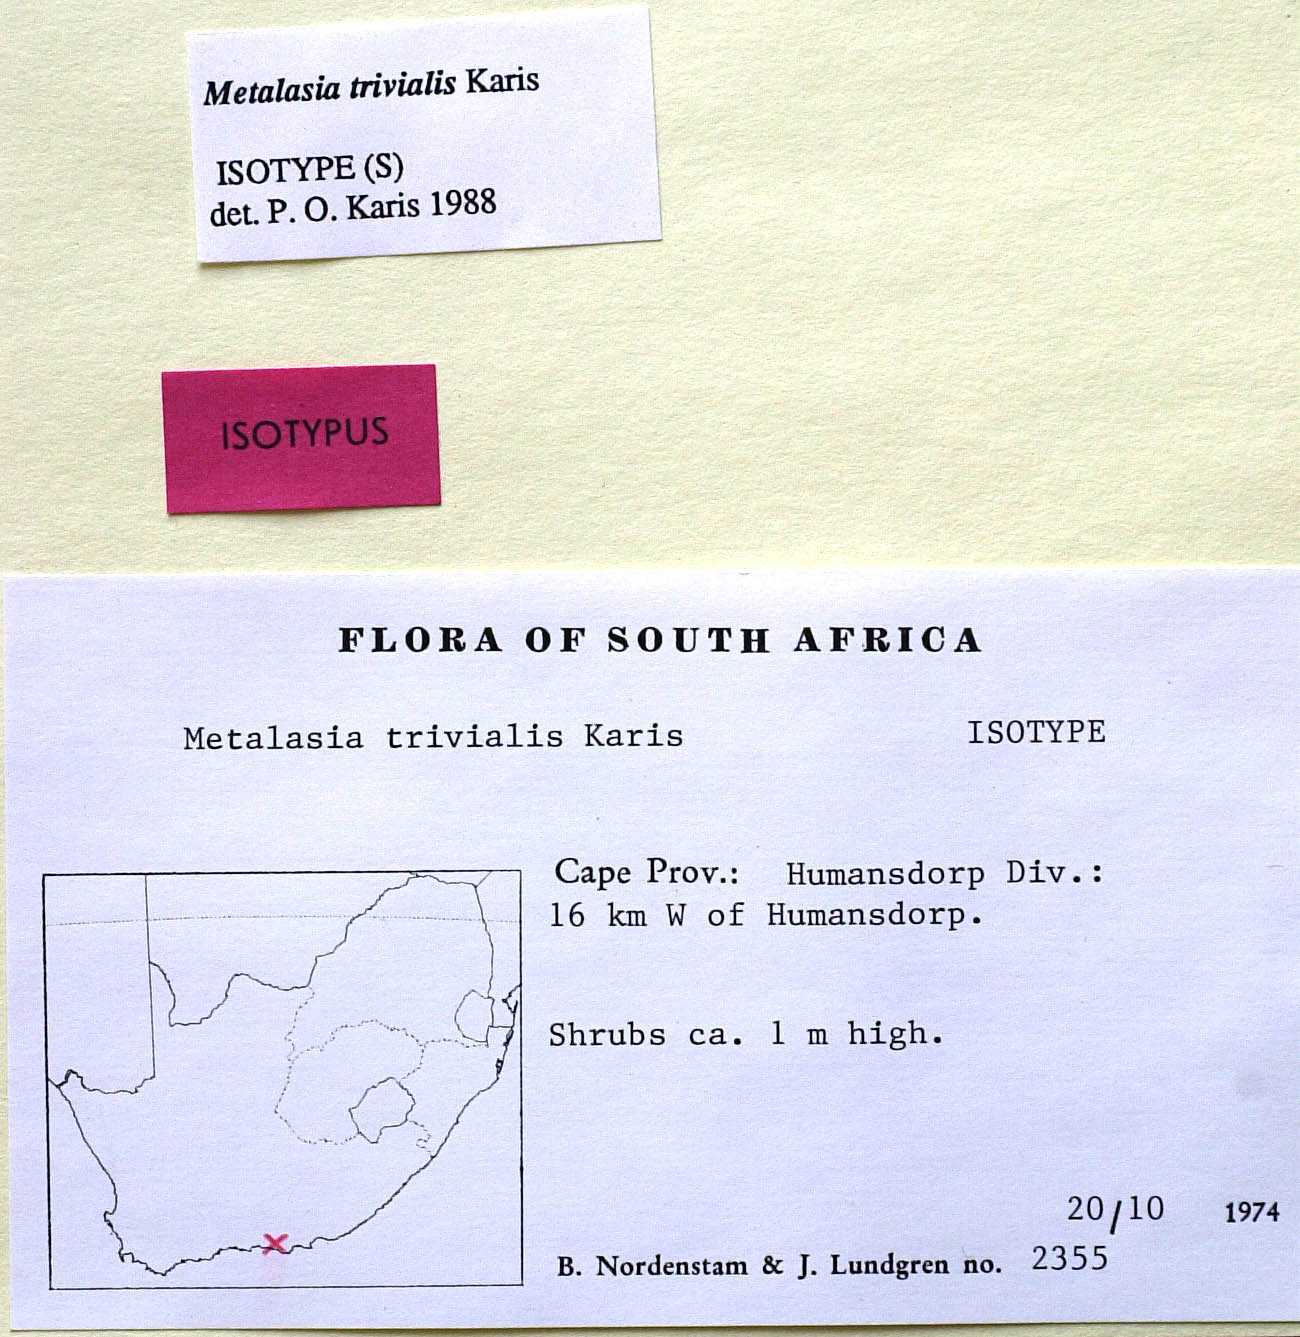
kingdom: Plantae
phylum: Tracheophyta
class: Magnoliopsida
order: Asterales
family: Asteraceae
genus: Metalasia
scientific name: Metalasia trivialis
